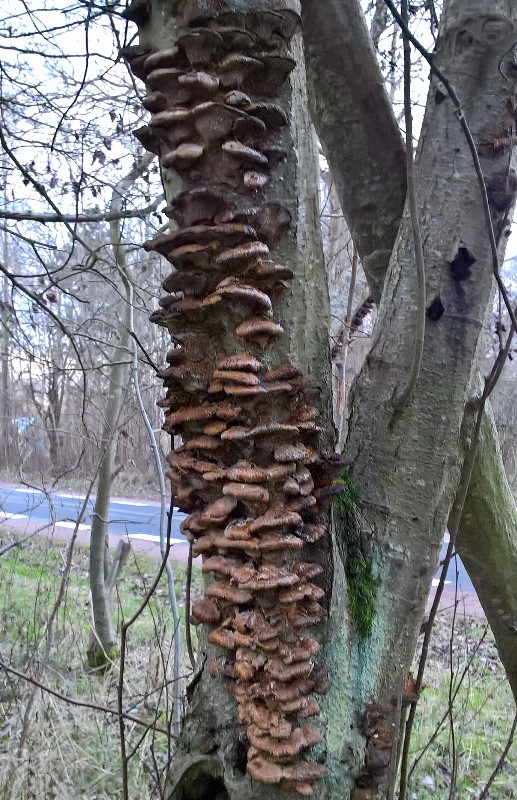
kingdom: Fungi
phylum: Basidiomycota
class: Agaricomycetes
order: Hymenochaetales
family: Hymenochaetaceae
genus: Xanthoporia
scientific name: Xanthoporia radiata
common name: elle-spejlporesvamp
